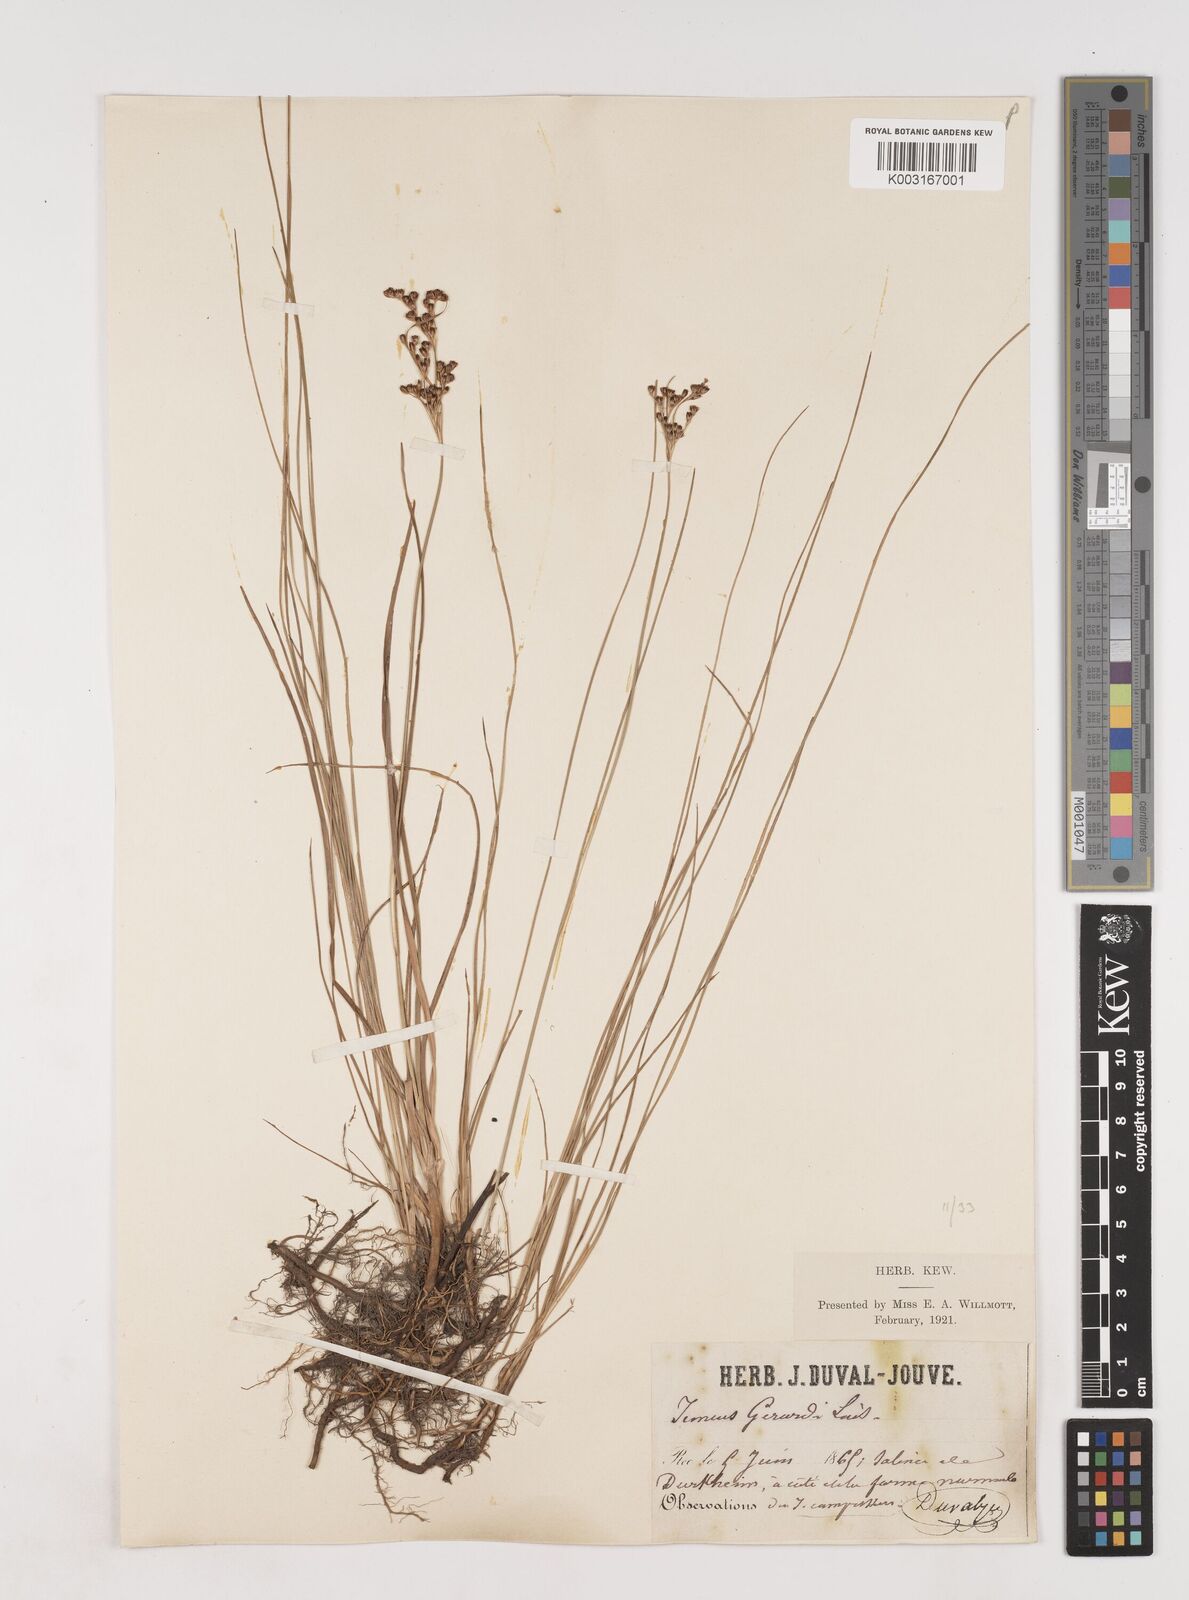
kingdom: Plantae
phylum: Tracheophyta
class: Liliopsida
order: Poales
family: Juncaceae
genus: Juncus
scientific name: Juncus gerardi
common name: Saltmarsh rush
